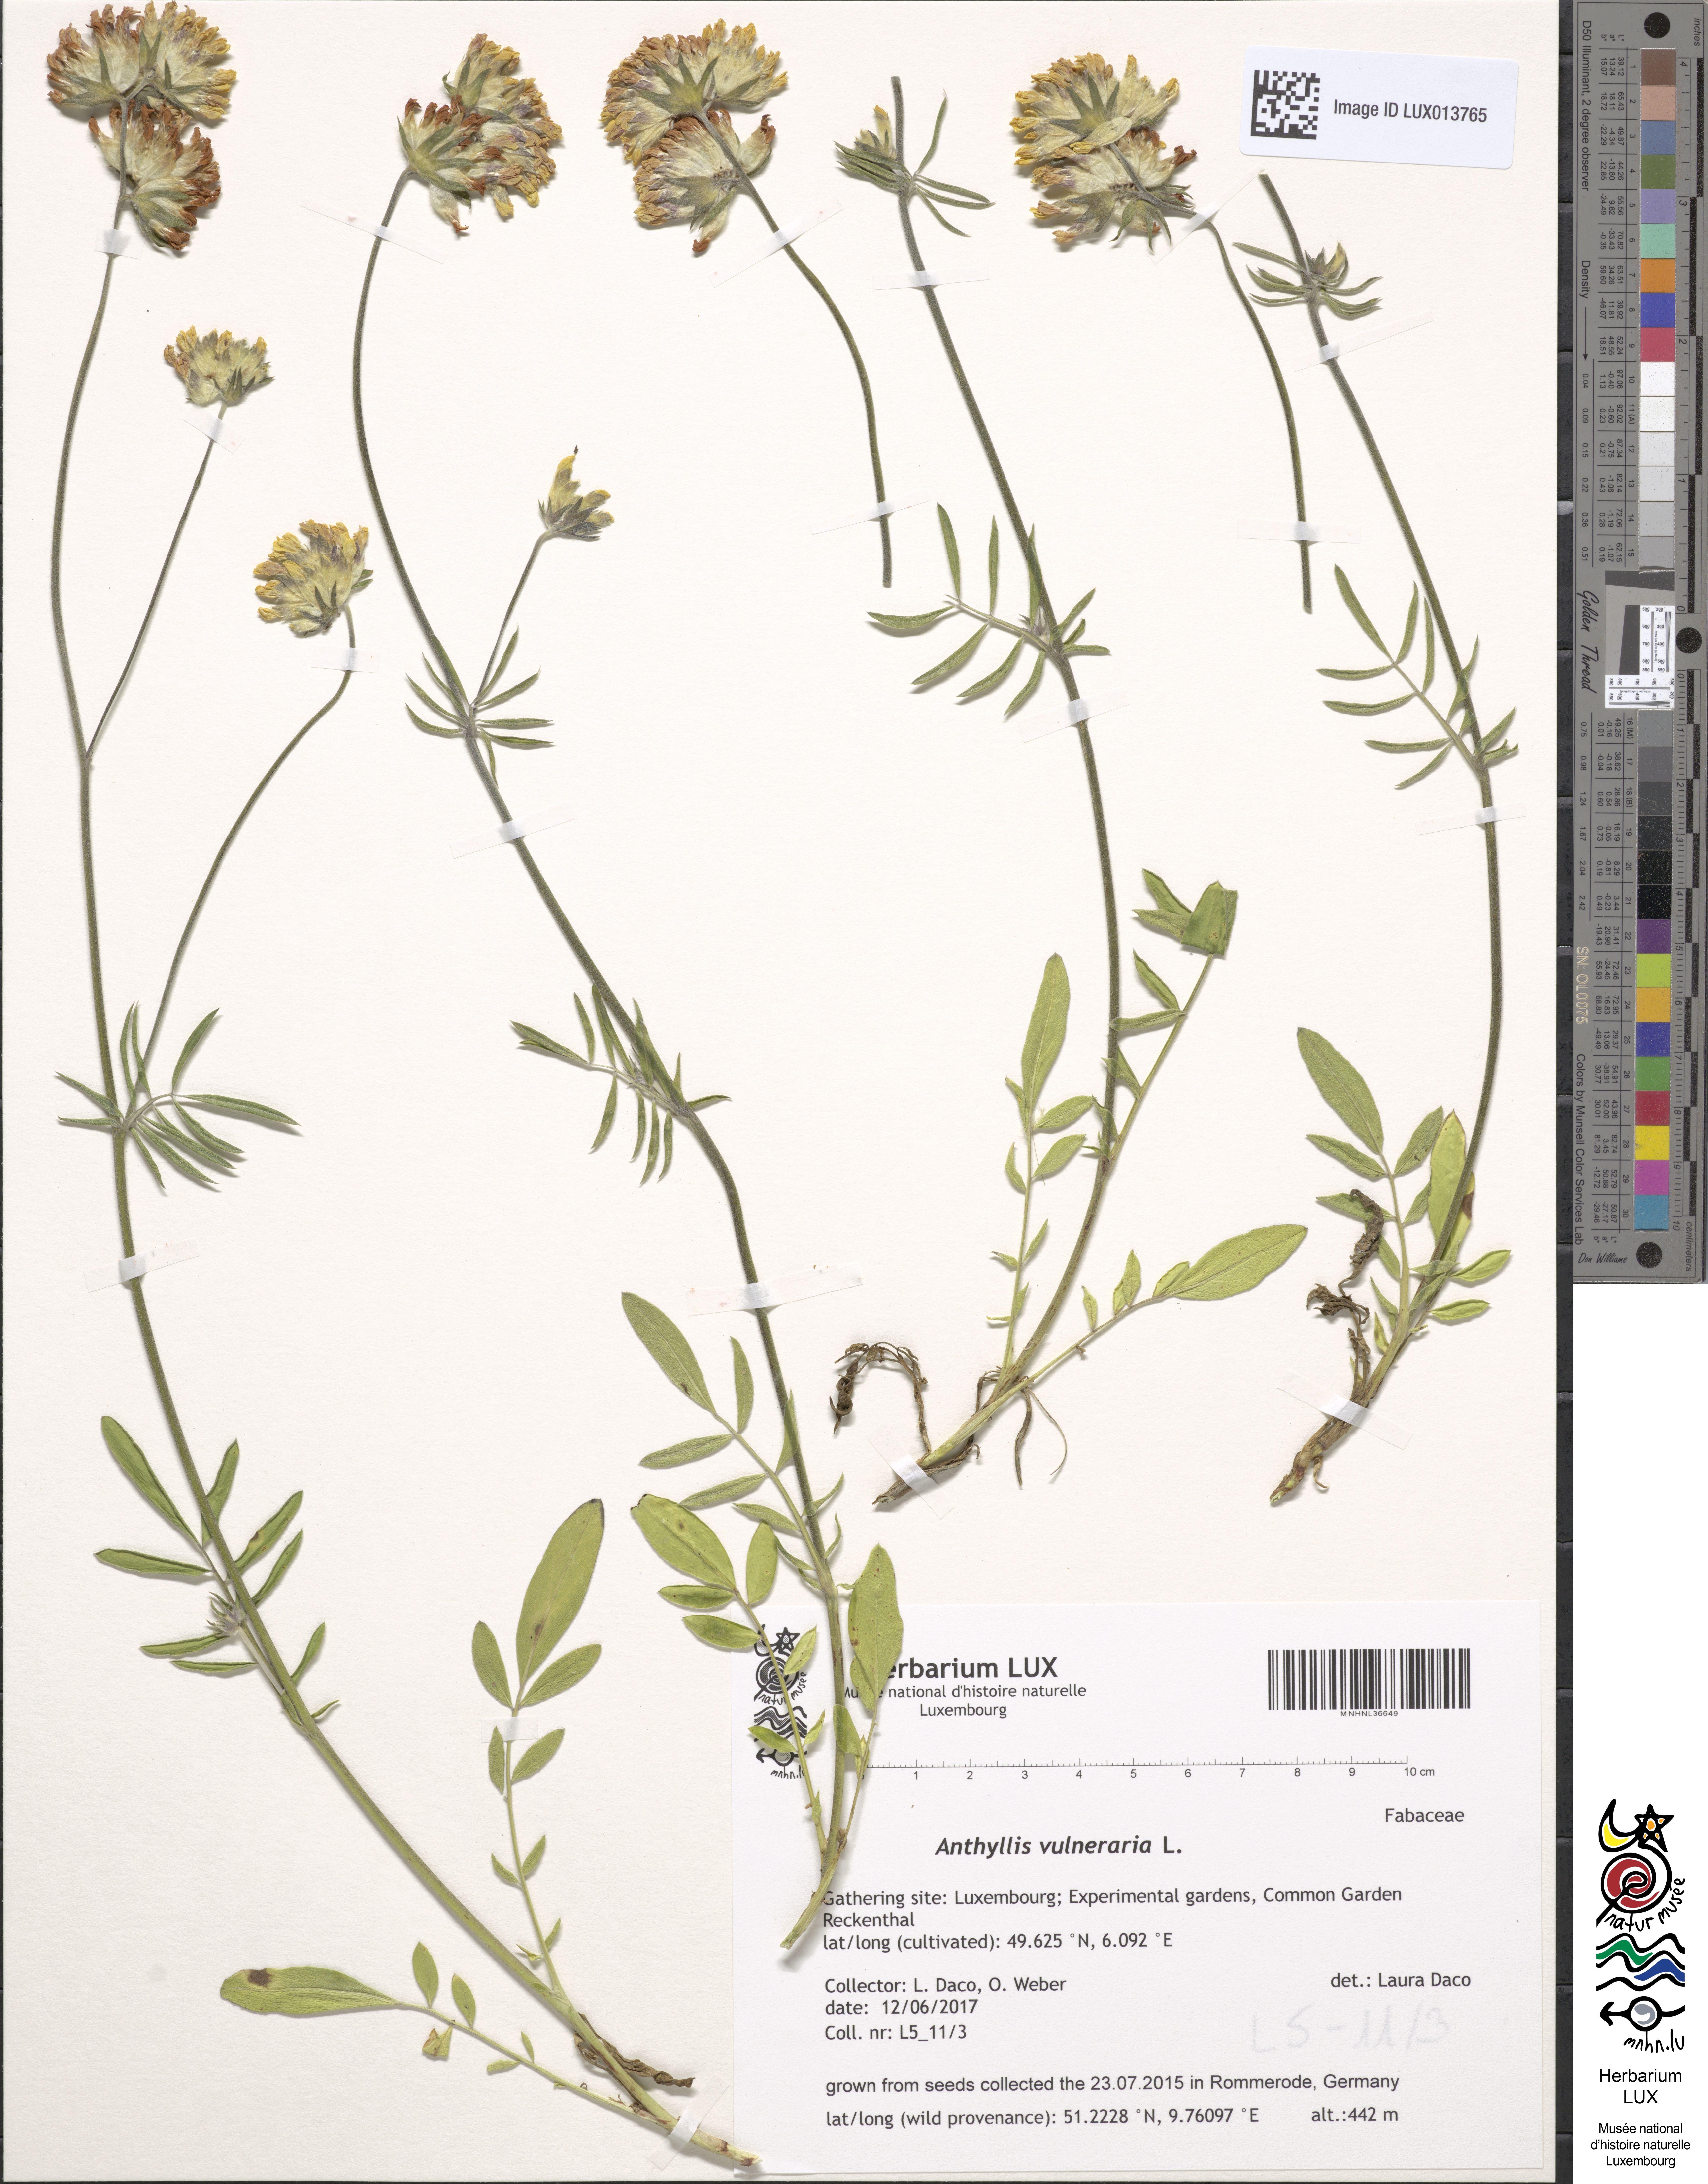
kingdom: Plantae
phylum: Tracheophyta
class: Magnoliopsida
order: Fabales
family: Fabaceae
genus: Anthyllis
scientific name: Anthyllis vulneraria
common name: Kidney vetch
